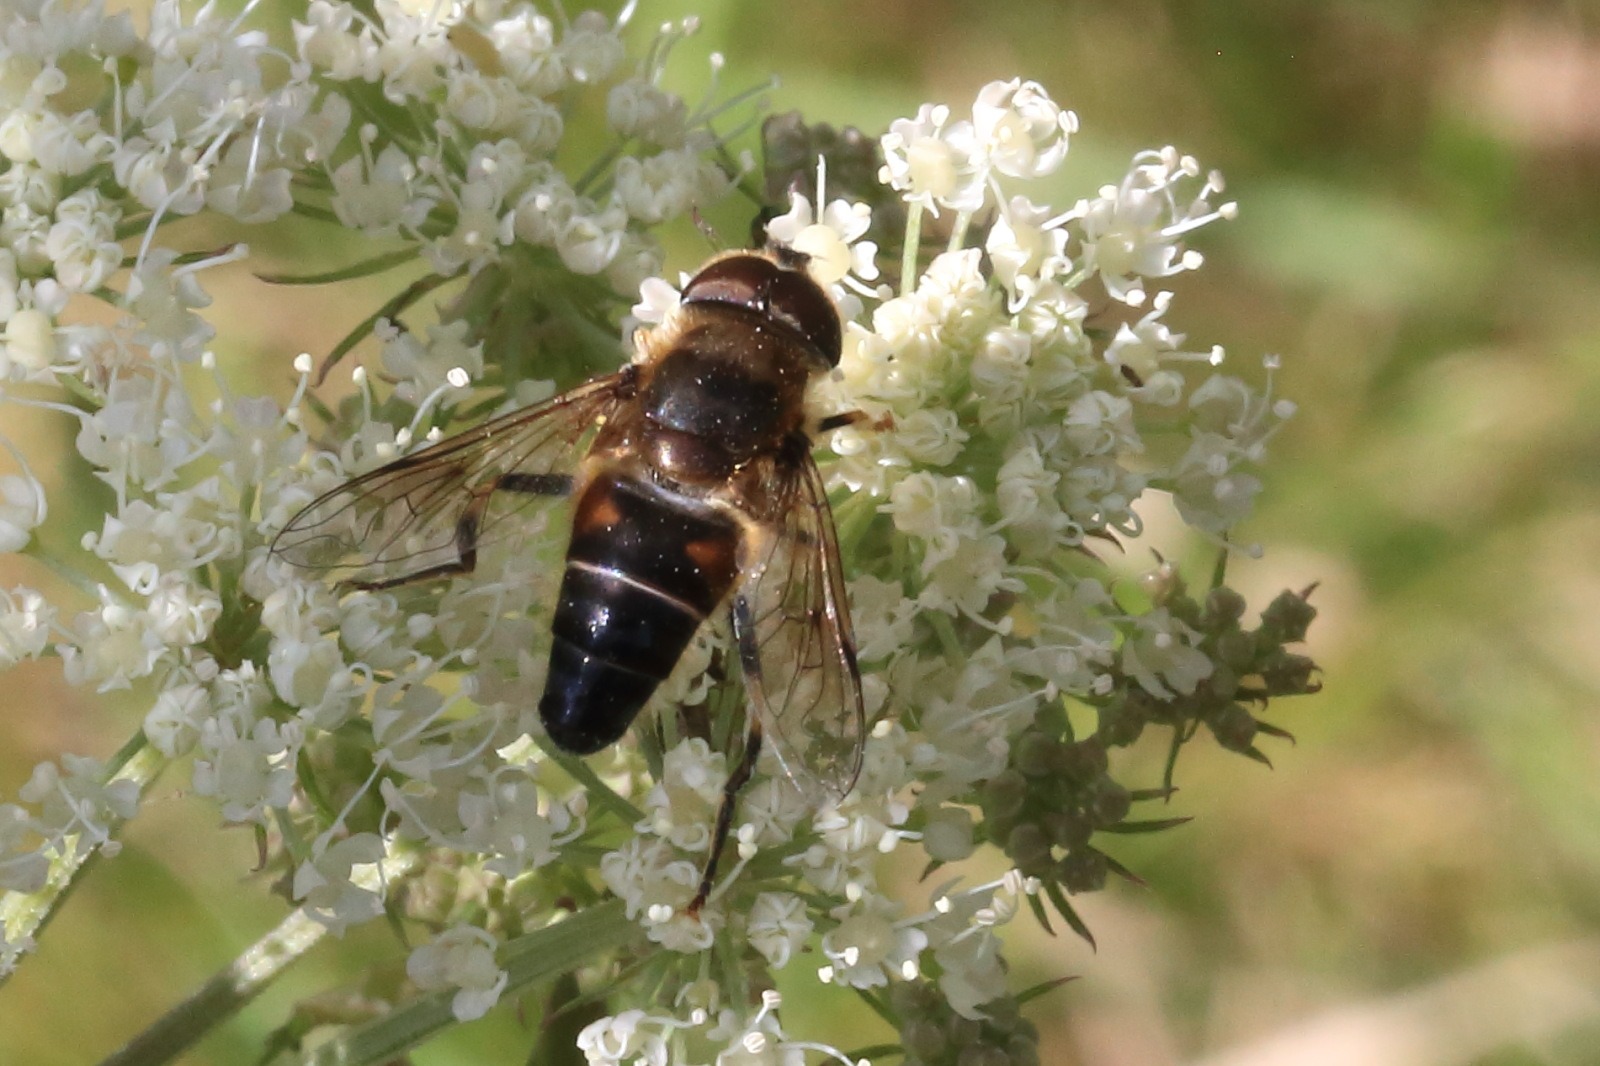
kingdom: Animalia
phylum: Arthropoda
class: Insecta
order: Diptera
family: Syrphidae
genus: Eristalis
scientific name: Eristalis pertinax
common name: Gulfodet dyndflue
